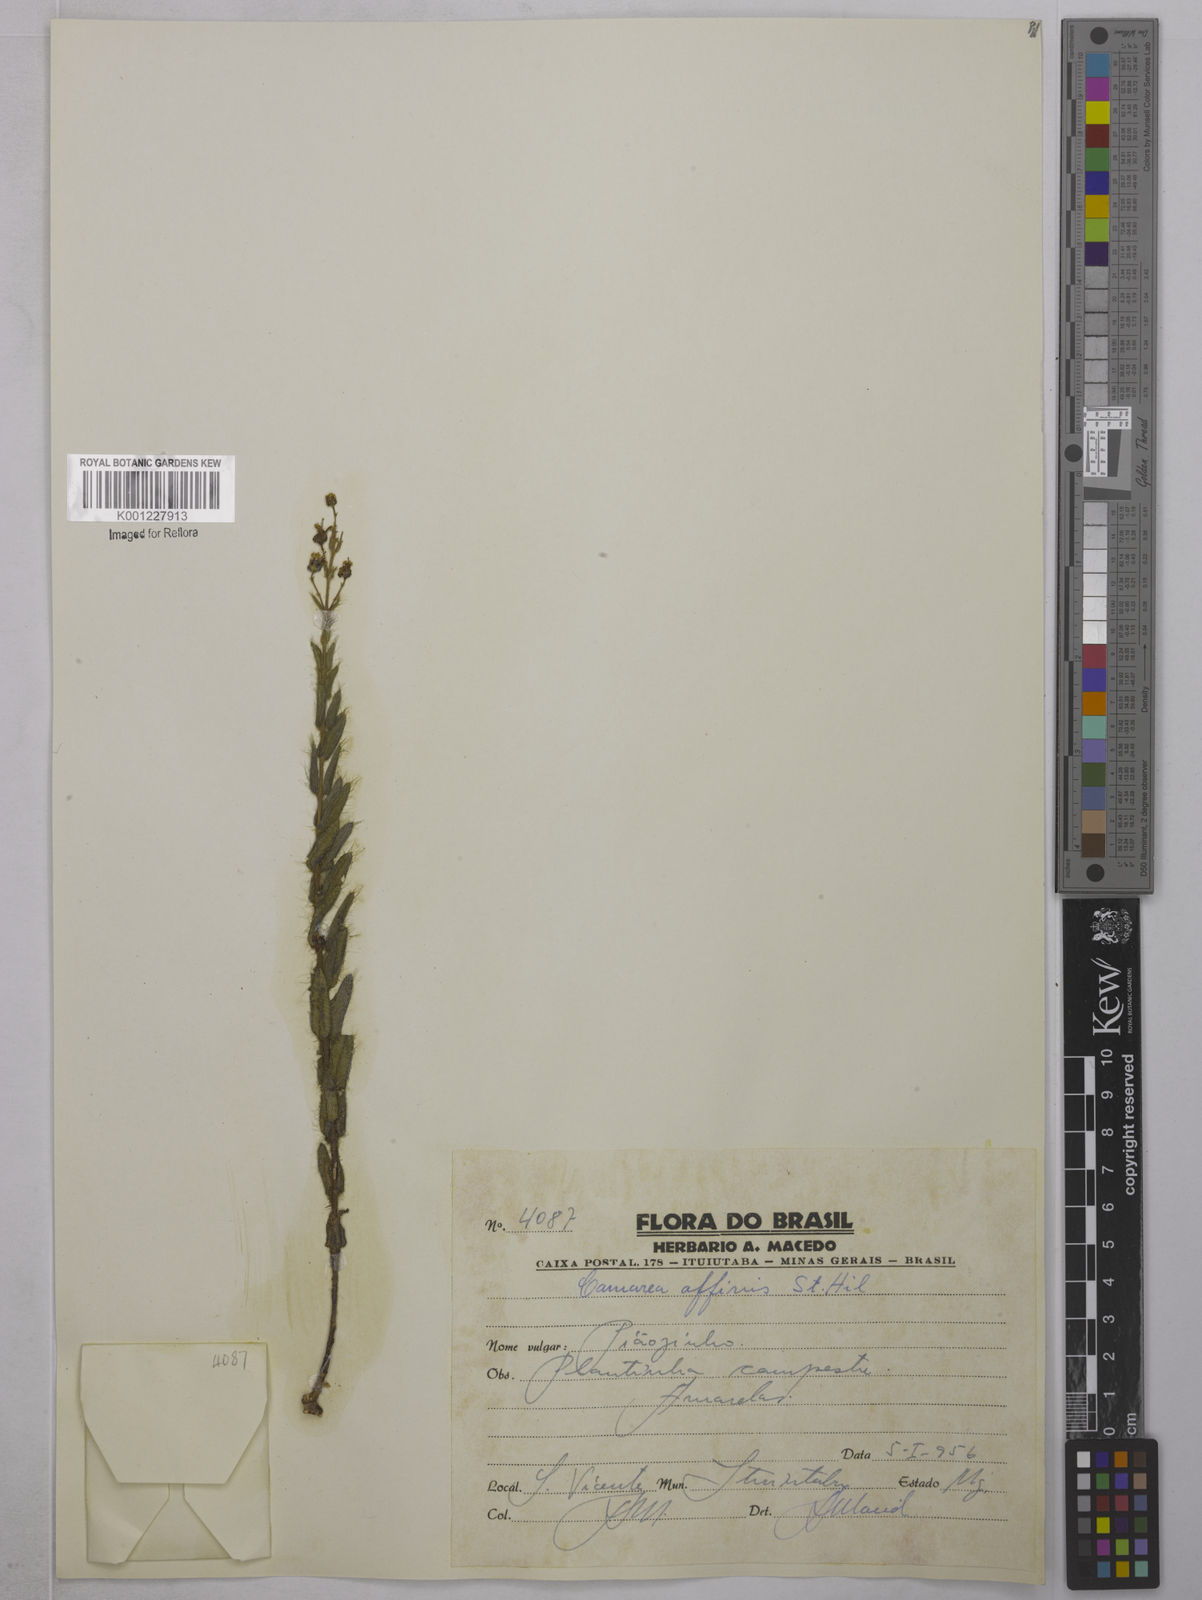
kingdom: Plantae
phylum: Tracheophyta
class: Magnoliopsida
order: Malpighiales
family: Malpighiaceae
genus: Camarea
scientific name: Camarea affinis
